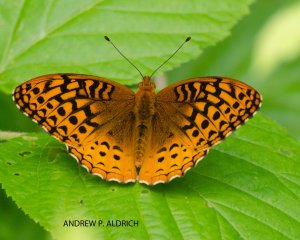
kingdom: Animalia
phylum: Arthropoda
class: Insecta
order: Lepidoptera
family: Nymphalidae
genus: Speyeria
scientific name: Speyeria cybele
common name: Great Spangled Fritillary
